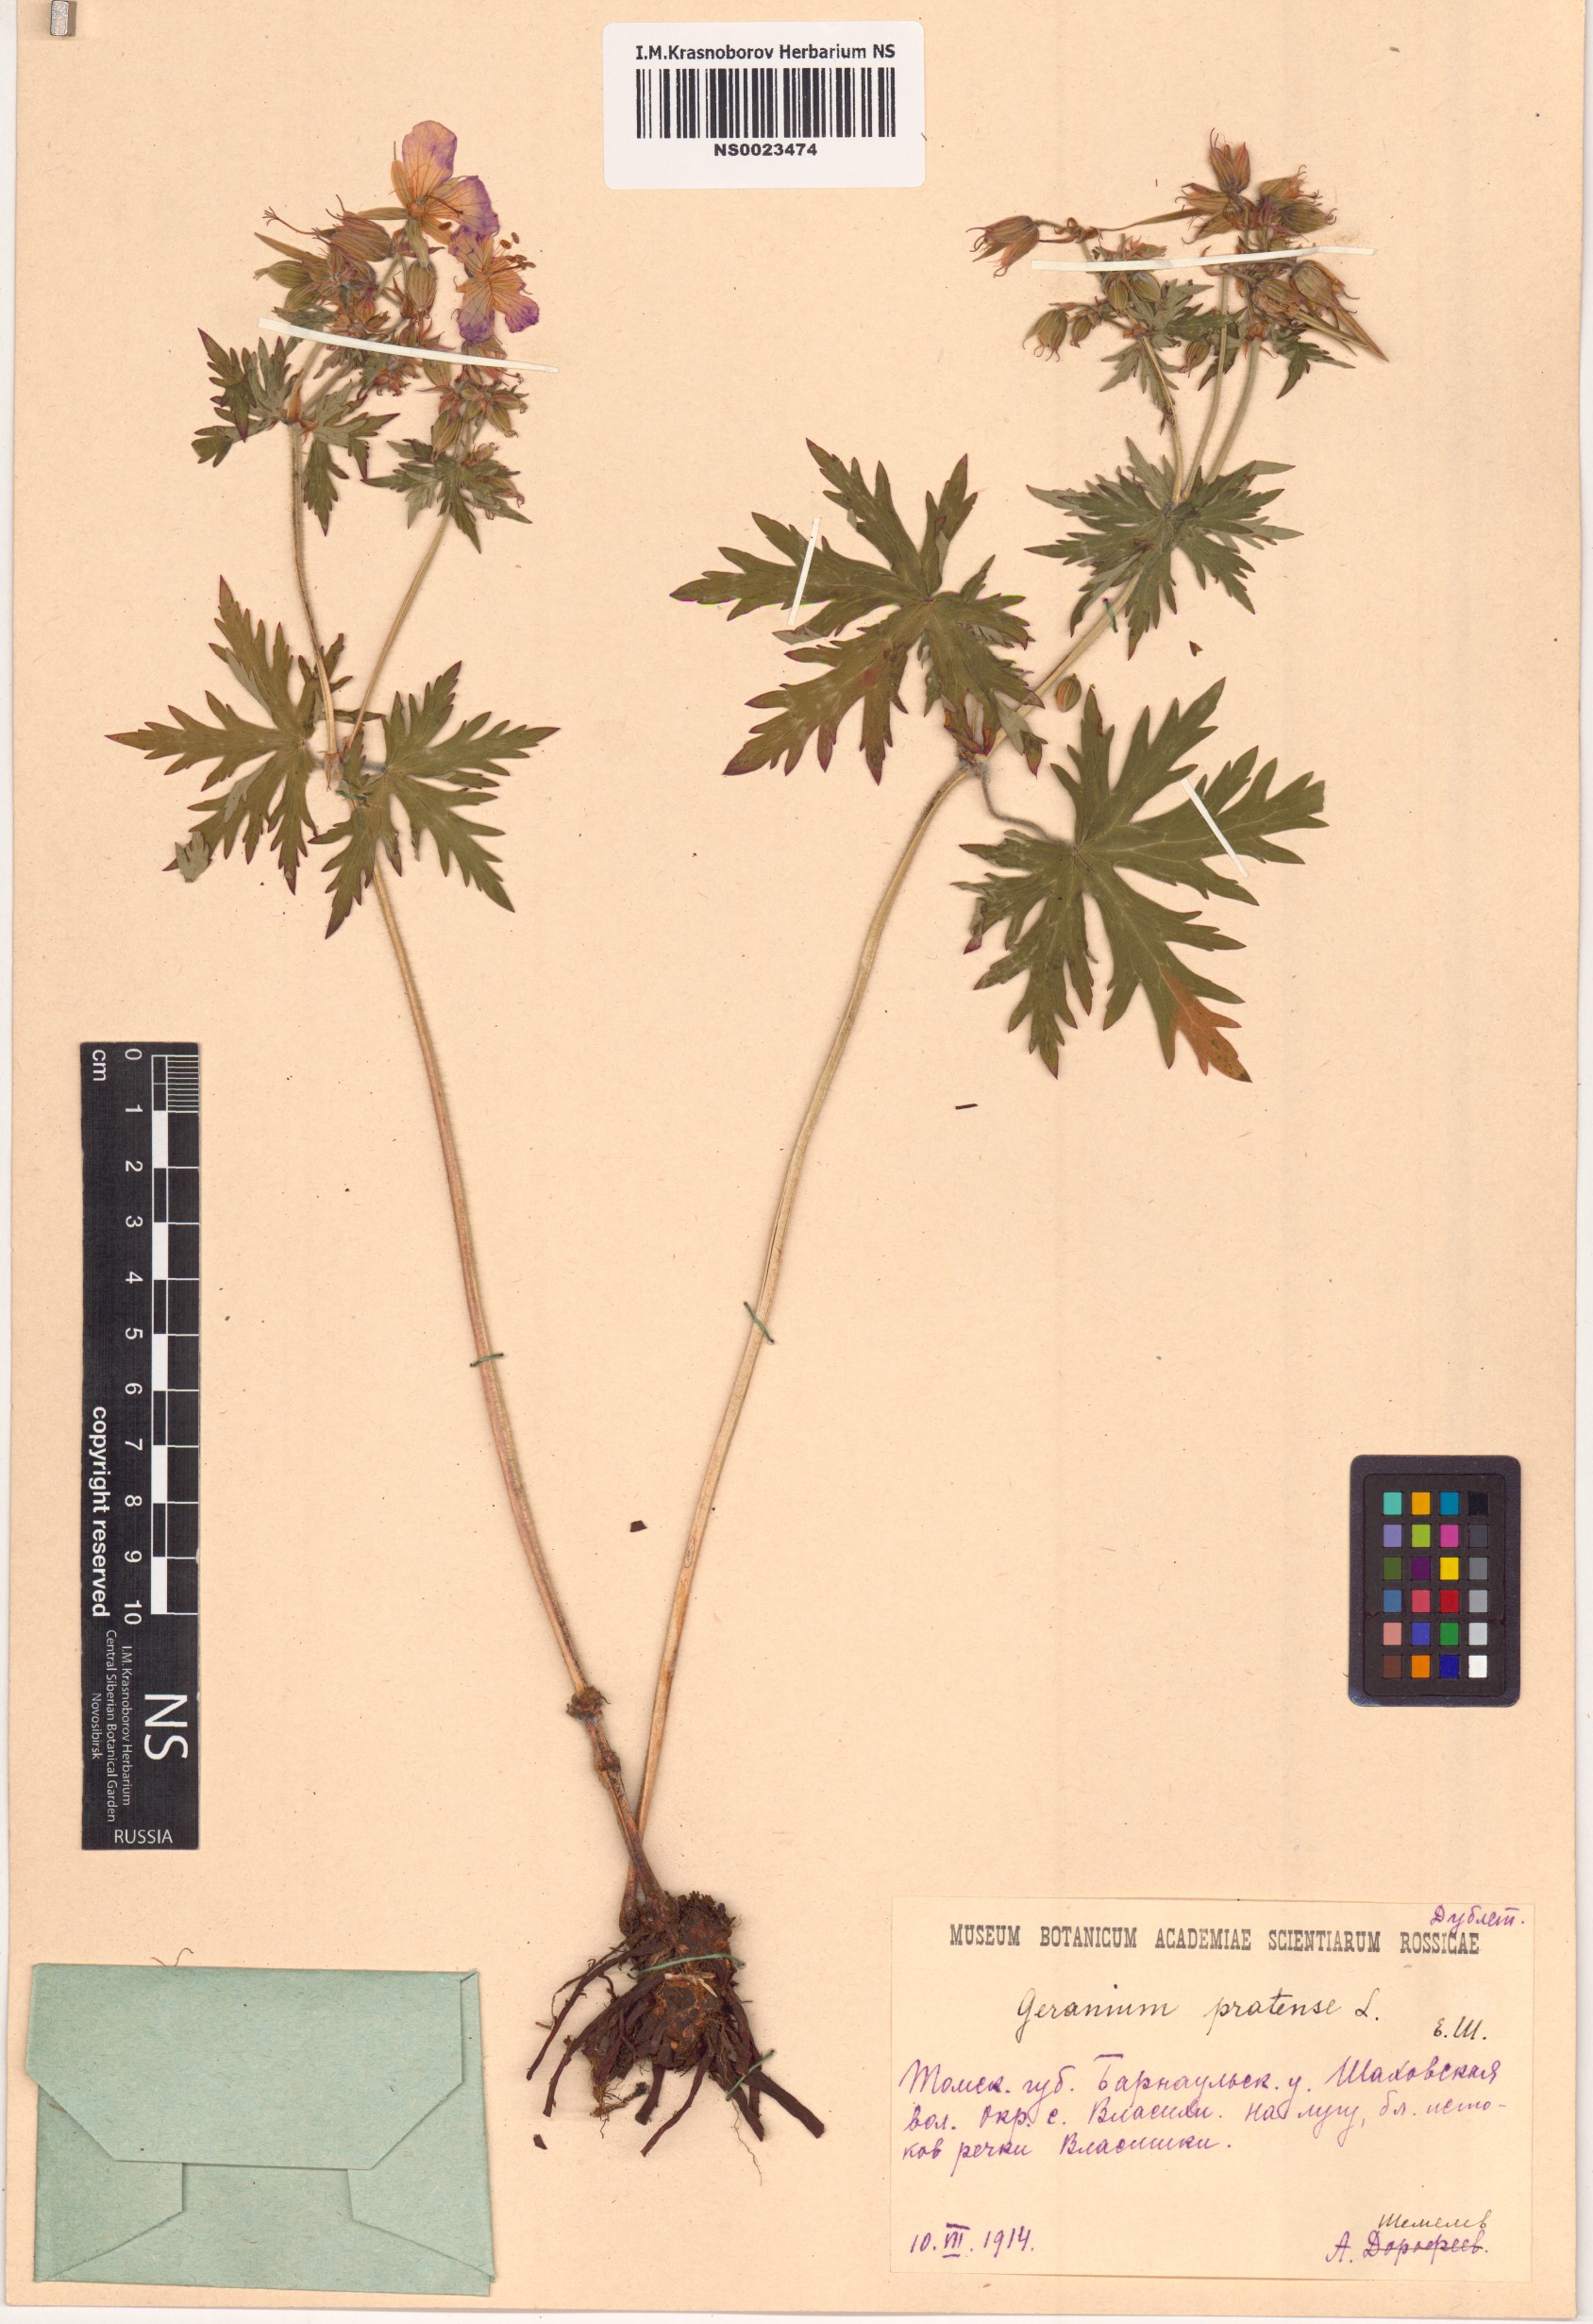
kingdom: Plantae
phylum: Tracheophyta
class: Magnoliopsida
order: Geraniales
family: Geraniaceae
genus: Geranium
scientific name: Geranium pratense
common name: Meadow crane's-bill
